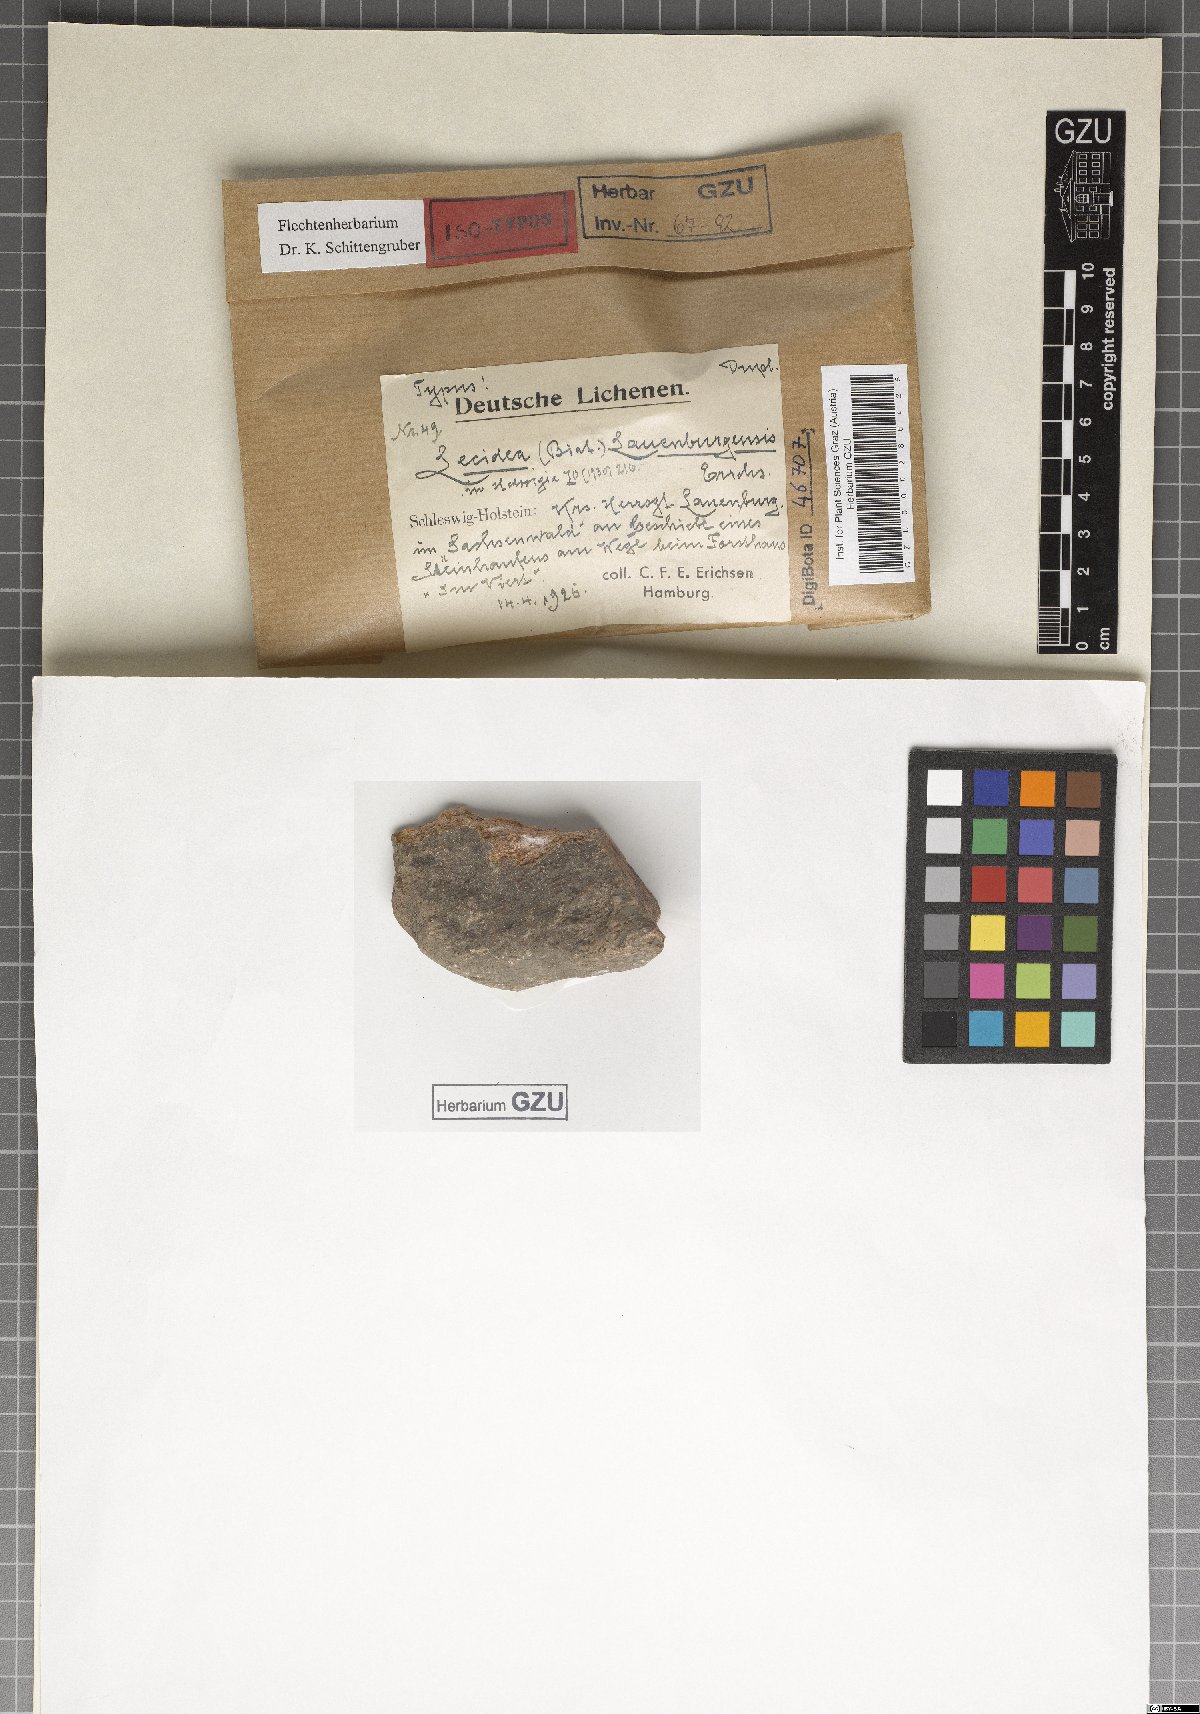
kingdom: Fungi
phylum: Ascomycota
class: Lecanoromycetes
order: Lecanorales
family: Byssolomataceae
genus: Micarea
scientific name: Micarea lithinella
